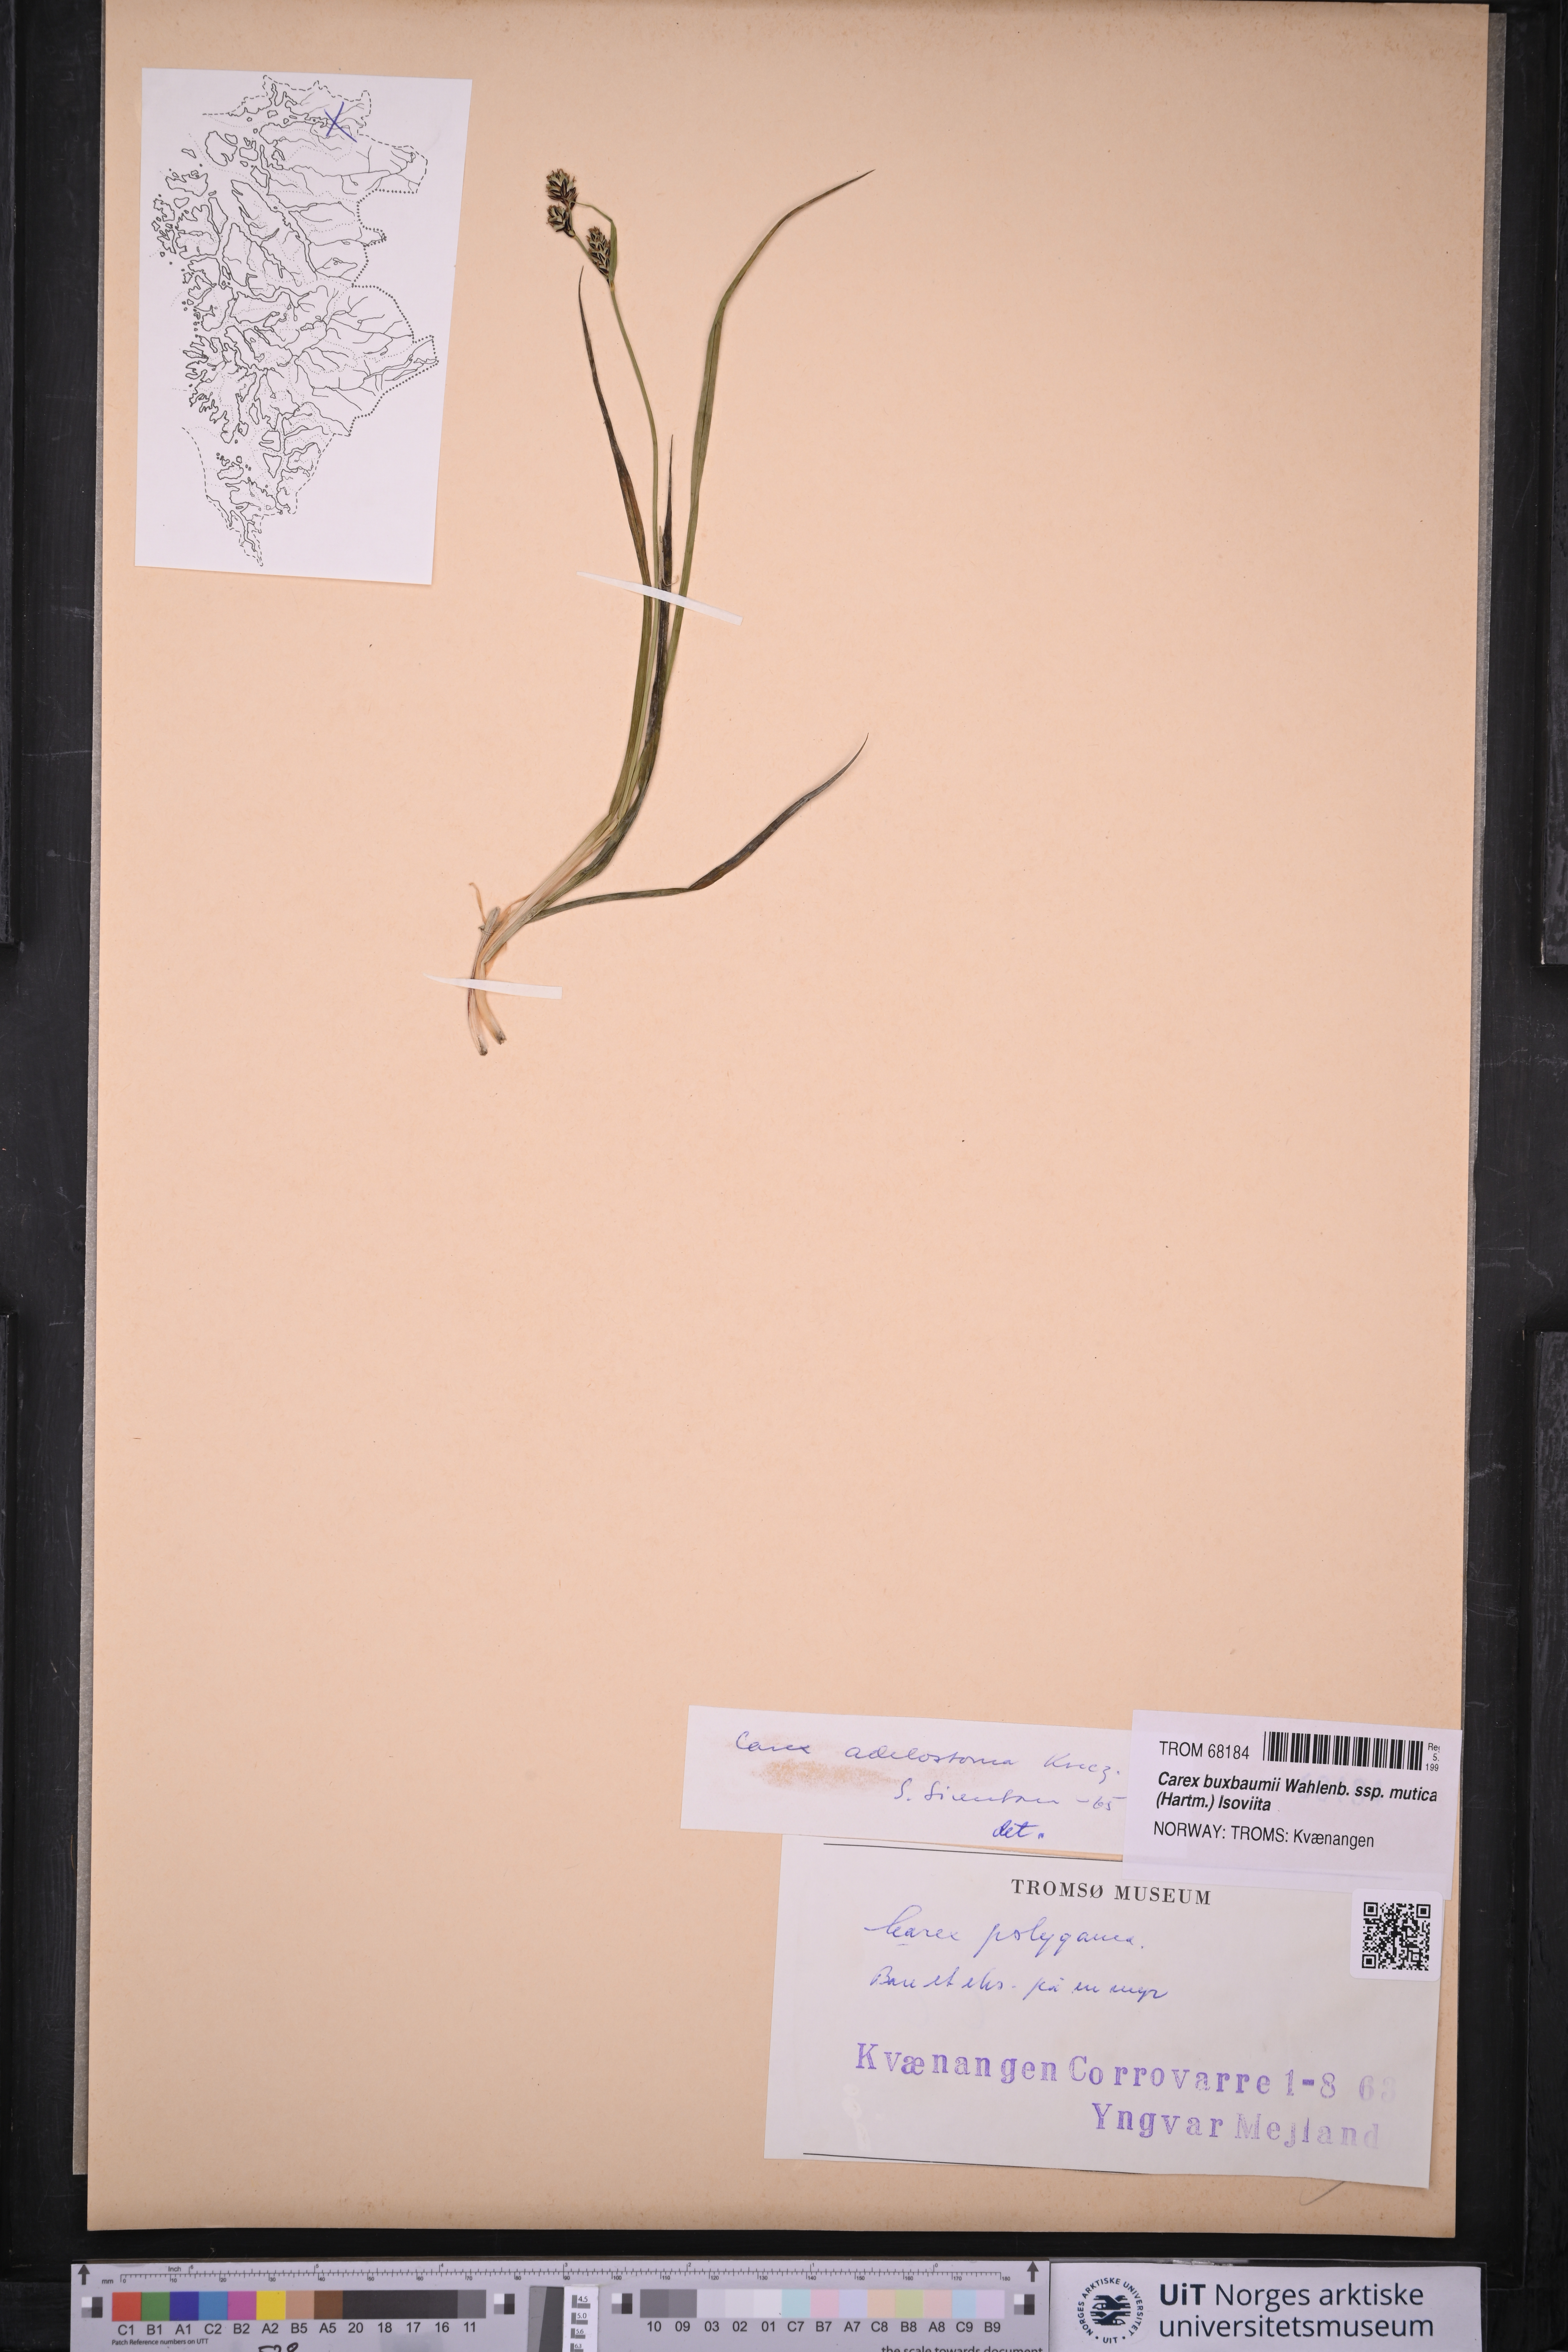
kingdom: Plantae
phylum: Tracheophyta
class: Liliopsida
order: Poales
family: Cyperaceae
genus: Carex
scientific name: Carex adelostoma
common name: Circumpolar sedge
